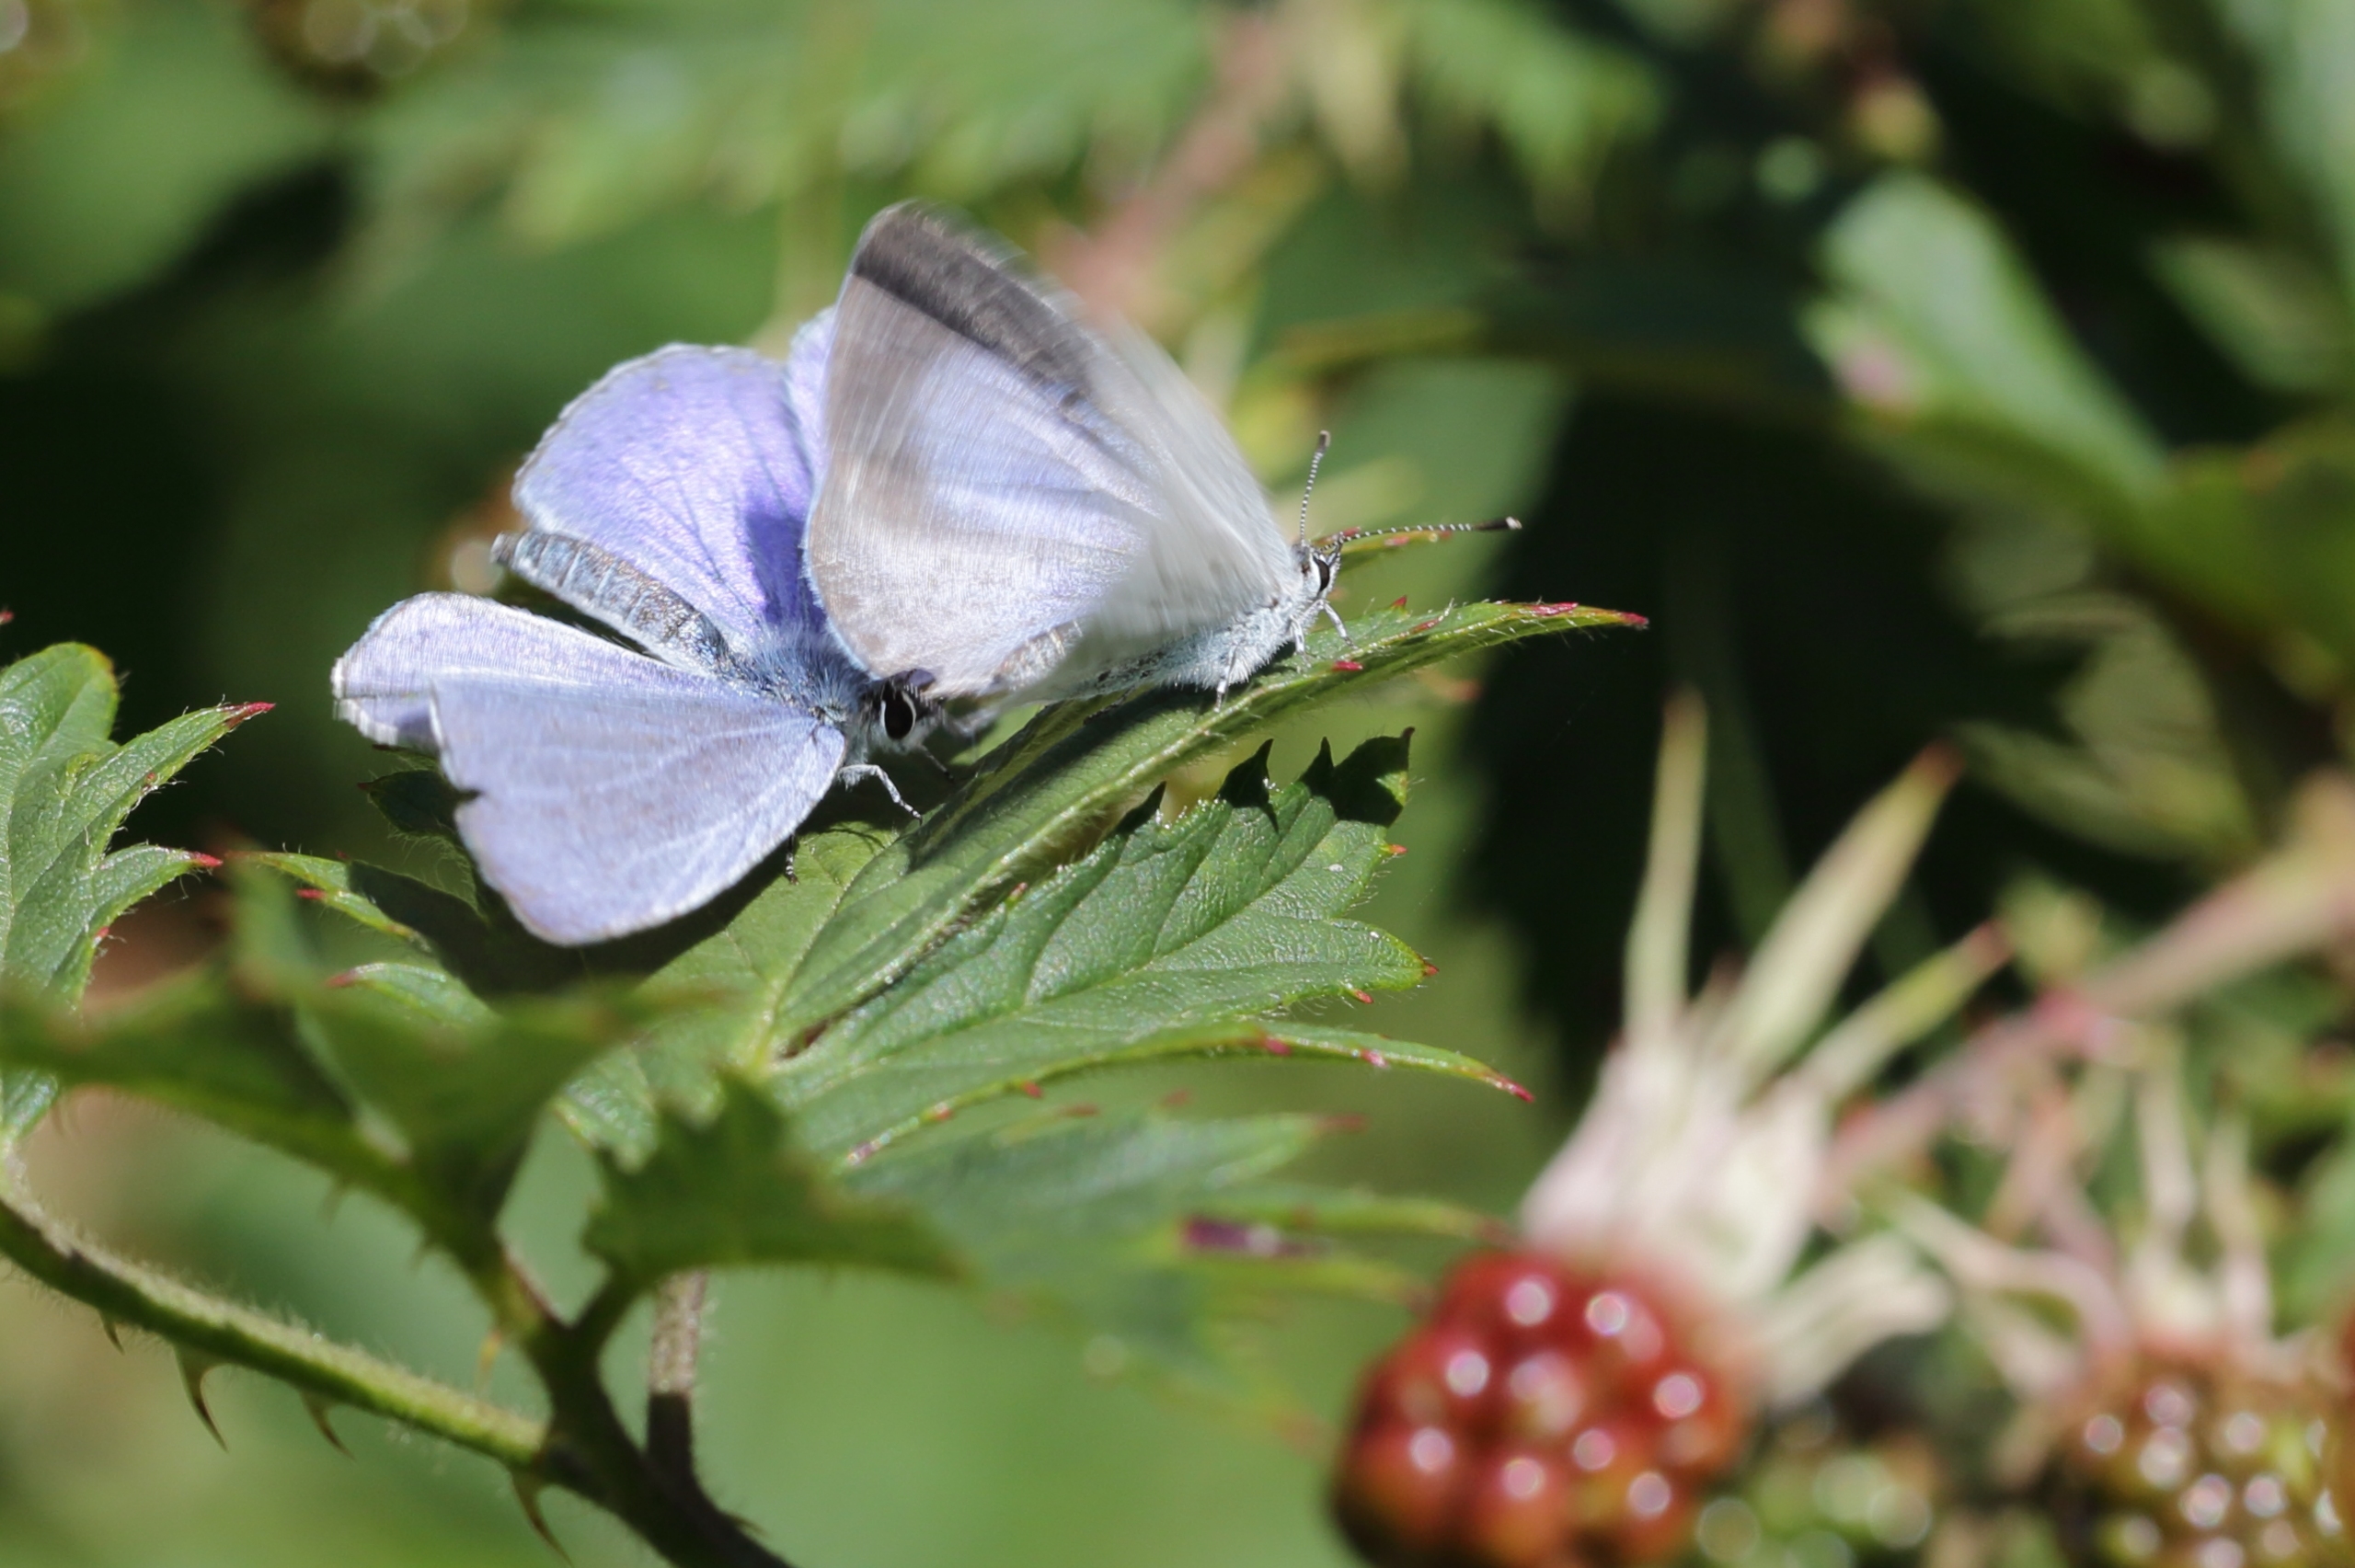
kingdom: Animalia
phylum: Arthropoda
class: Insecta
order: Lepidoptera
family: Lycaenidae
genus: Celastrina
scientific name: Celastrina argiolus
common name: Skovblåfugl
